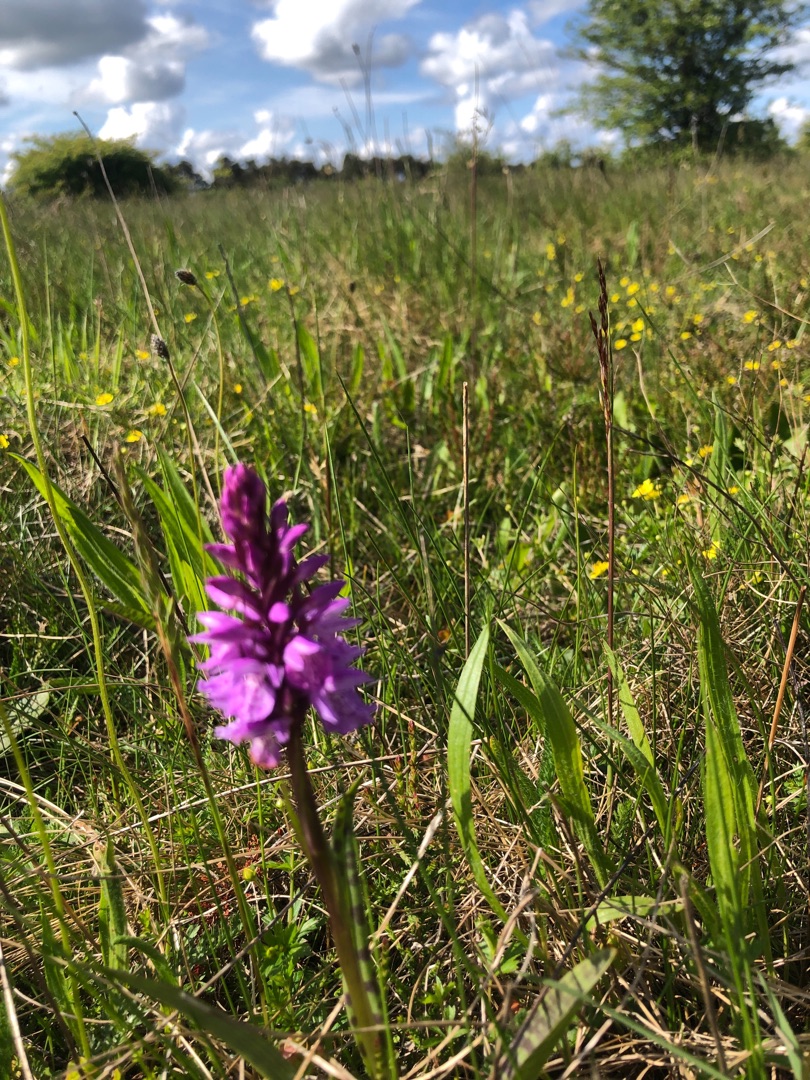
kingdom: Plantae
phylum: Tracheophyta
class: Liliopsida
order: Asparagales
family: Orchidaceae
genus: Dactylorhiza
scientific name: Dactylorhiza maculata
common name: Plettet gøgeurt
